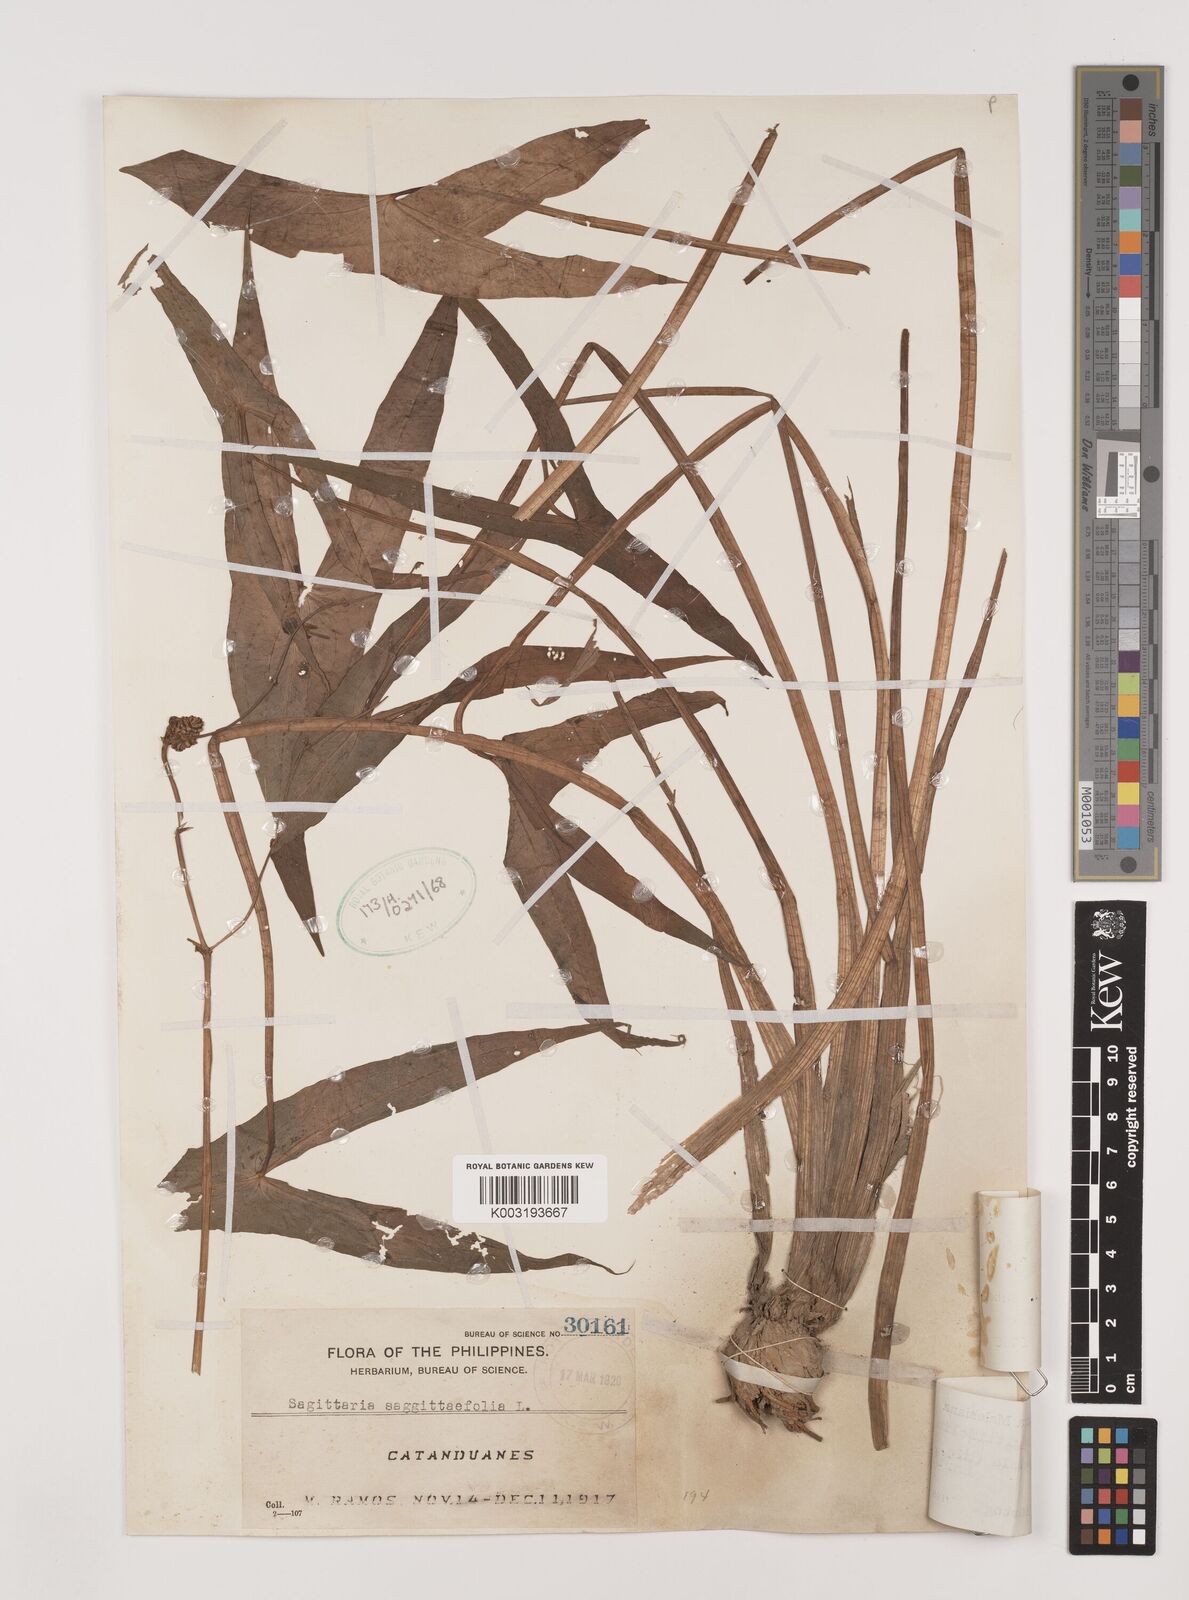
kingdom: Plantae
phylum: Tracheophyta
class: Liliopsida
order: Alismatales
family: Alismataceae
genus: Sagittaria
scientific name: Sagittaria sagittifolia
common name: Arrowhead
